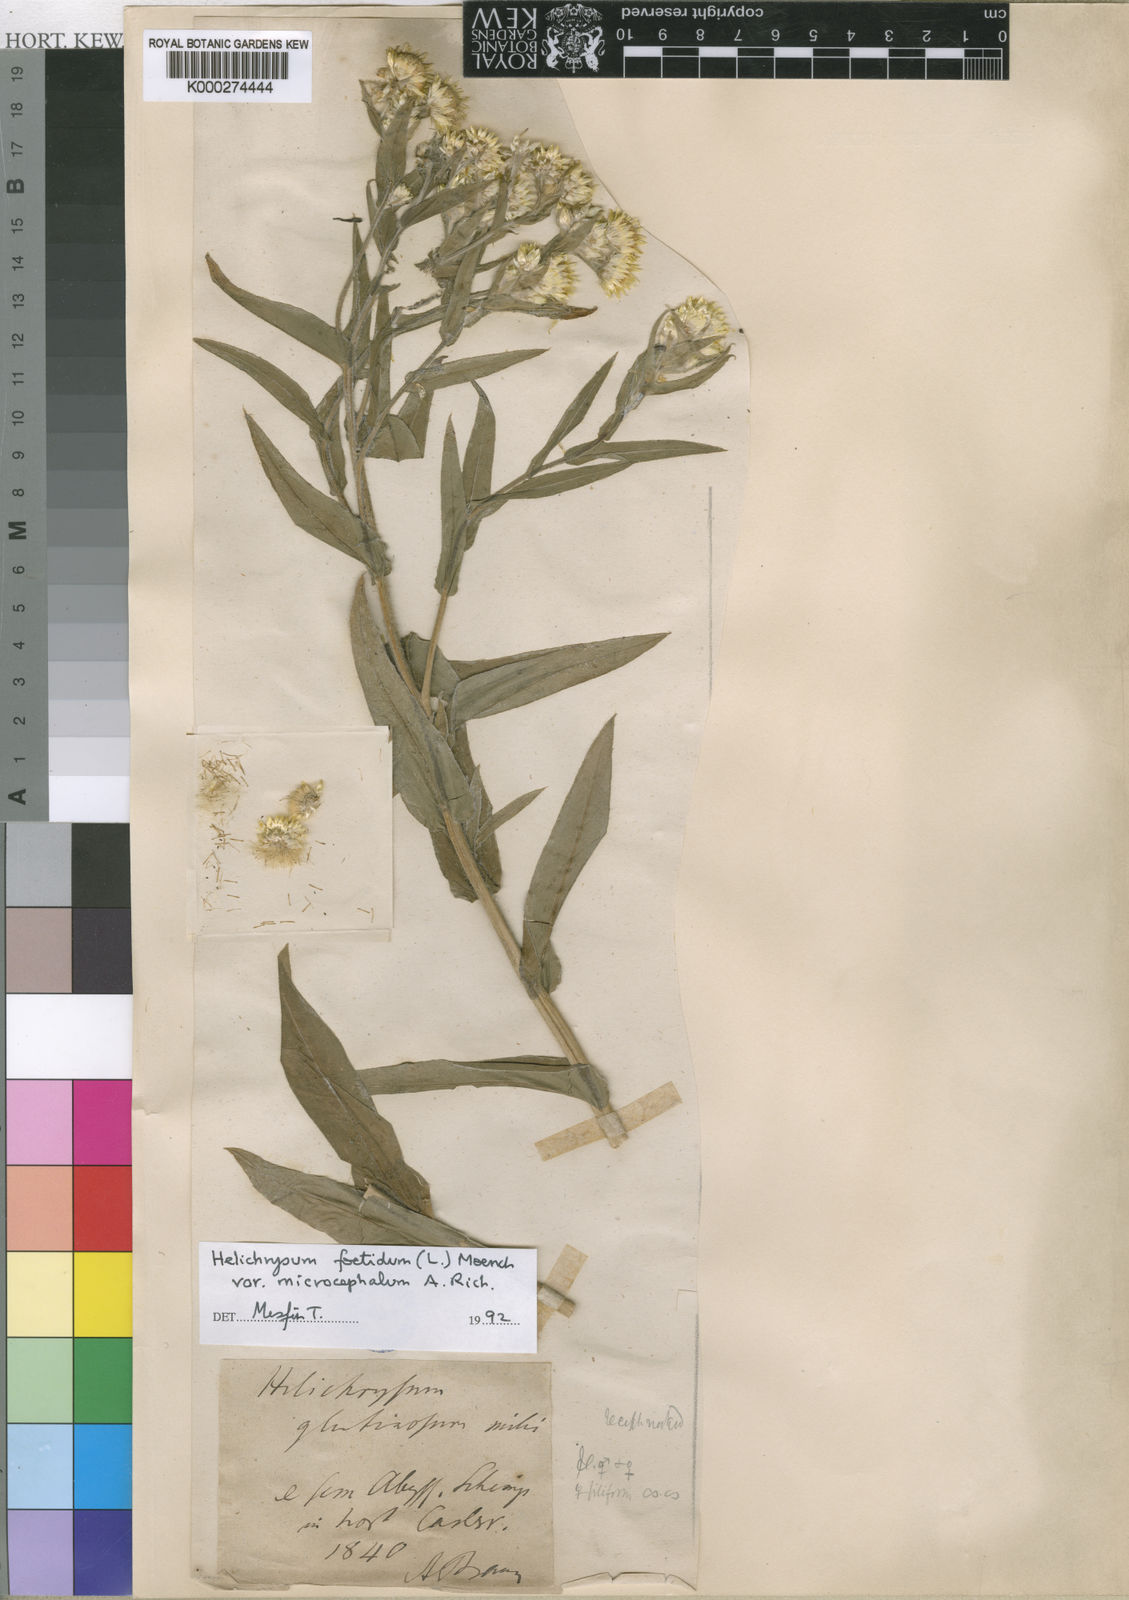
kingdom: Plantae
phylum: Tracheophyta
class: Magnoliopsida
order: Asterales
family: Asteraceae
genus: Helichrysum
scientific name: Helichrysum foetidum
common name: Stinking everlasting
